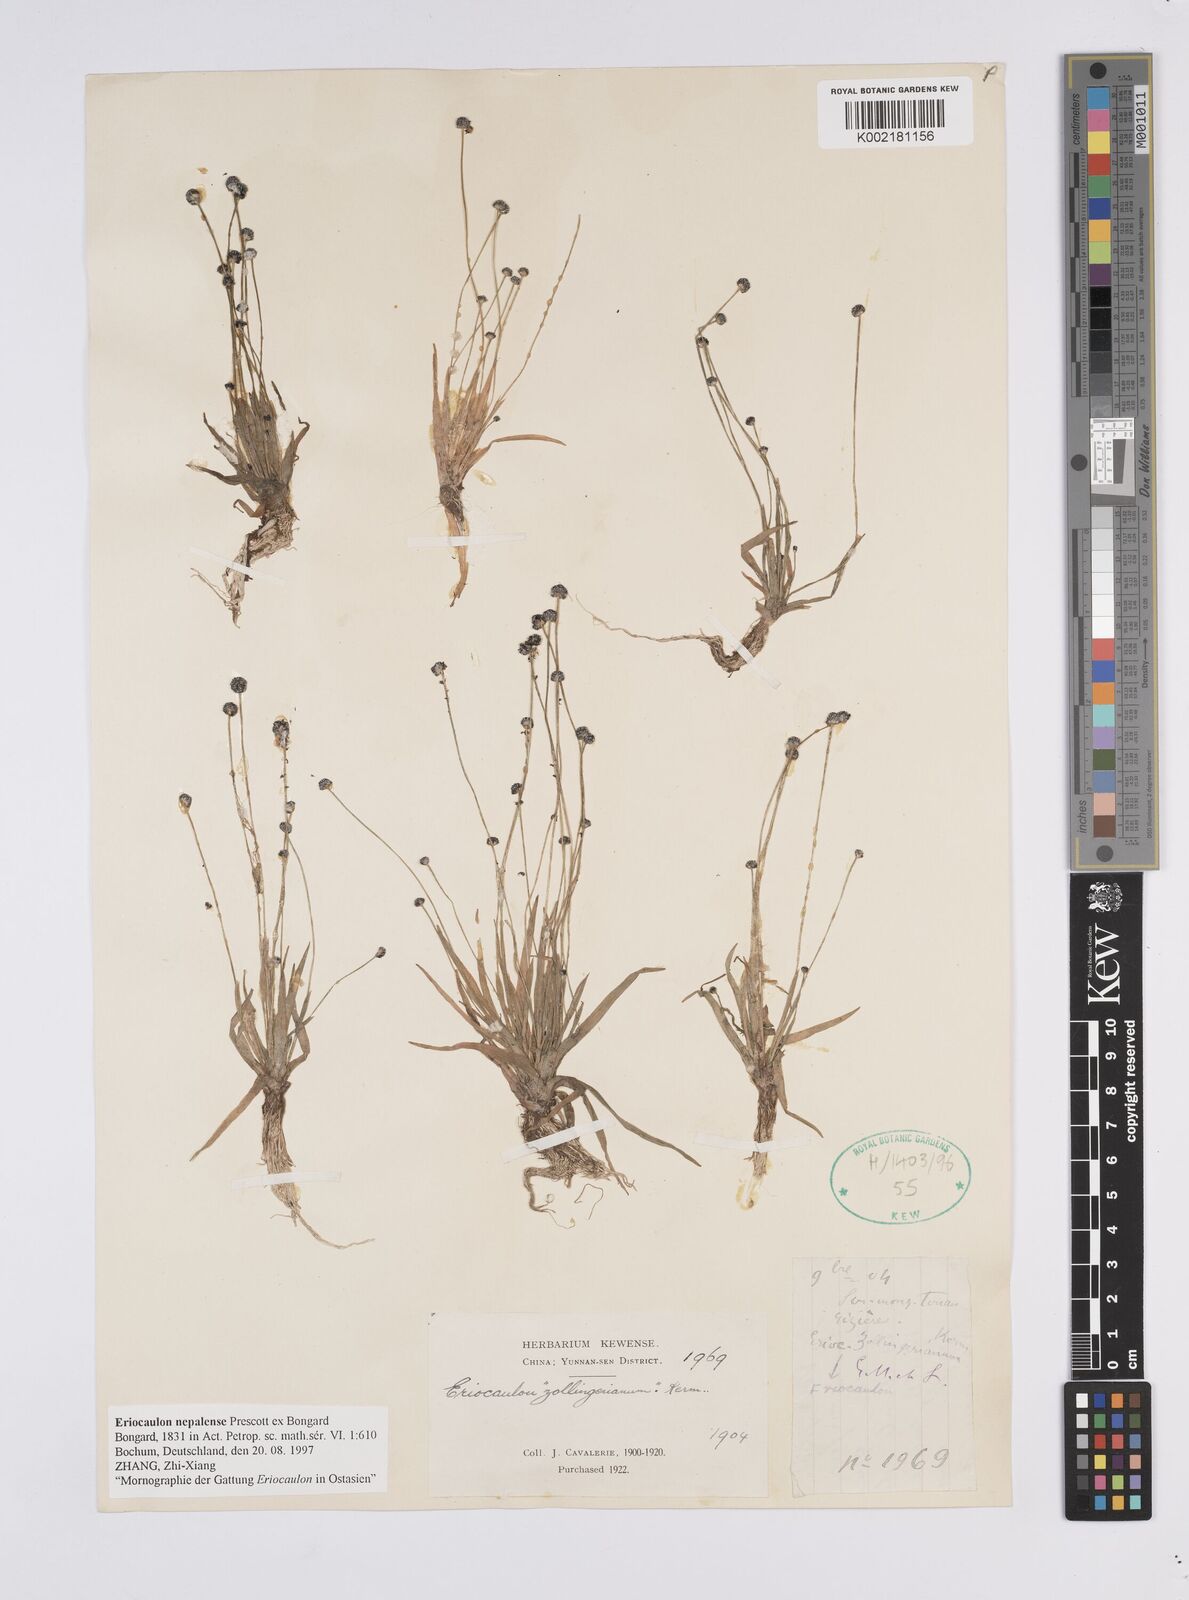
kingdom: Plantae
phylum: Tracheophyta
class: Liliopsida
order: Poales
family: Eriocaulaceae
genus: Eriocaulon
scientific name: Eriocaulon nepalense
